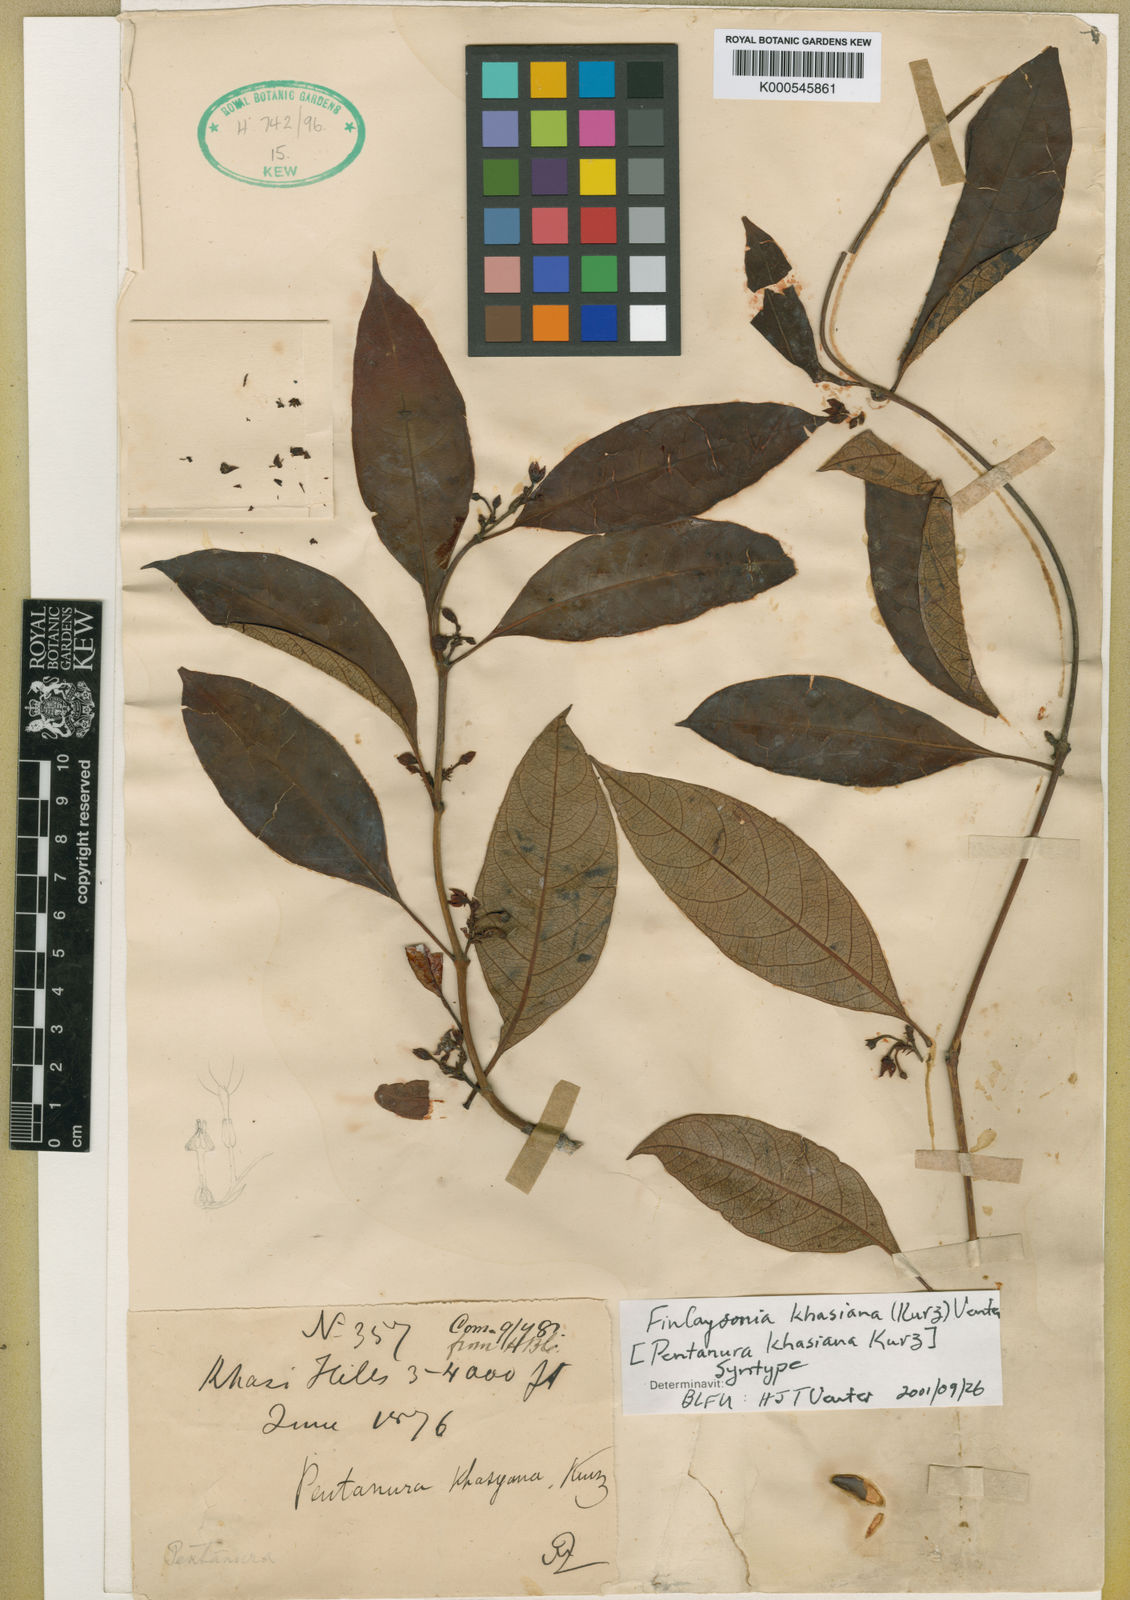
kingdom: Plantae
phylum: Tracheophyta
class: Magnoliopsida
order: Gentianales
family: Apocynaceae
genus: Decalepis
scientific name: Decalepis khasiana
